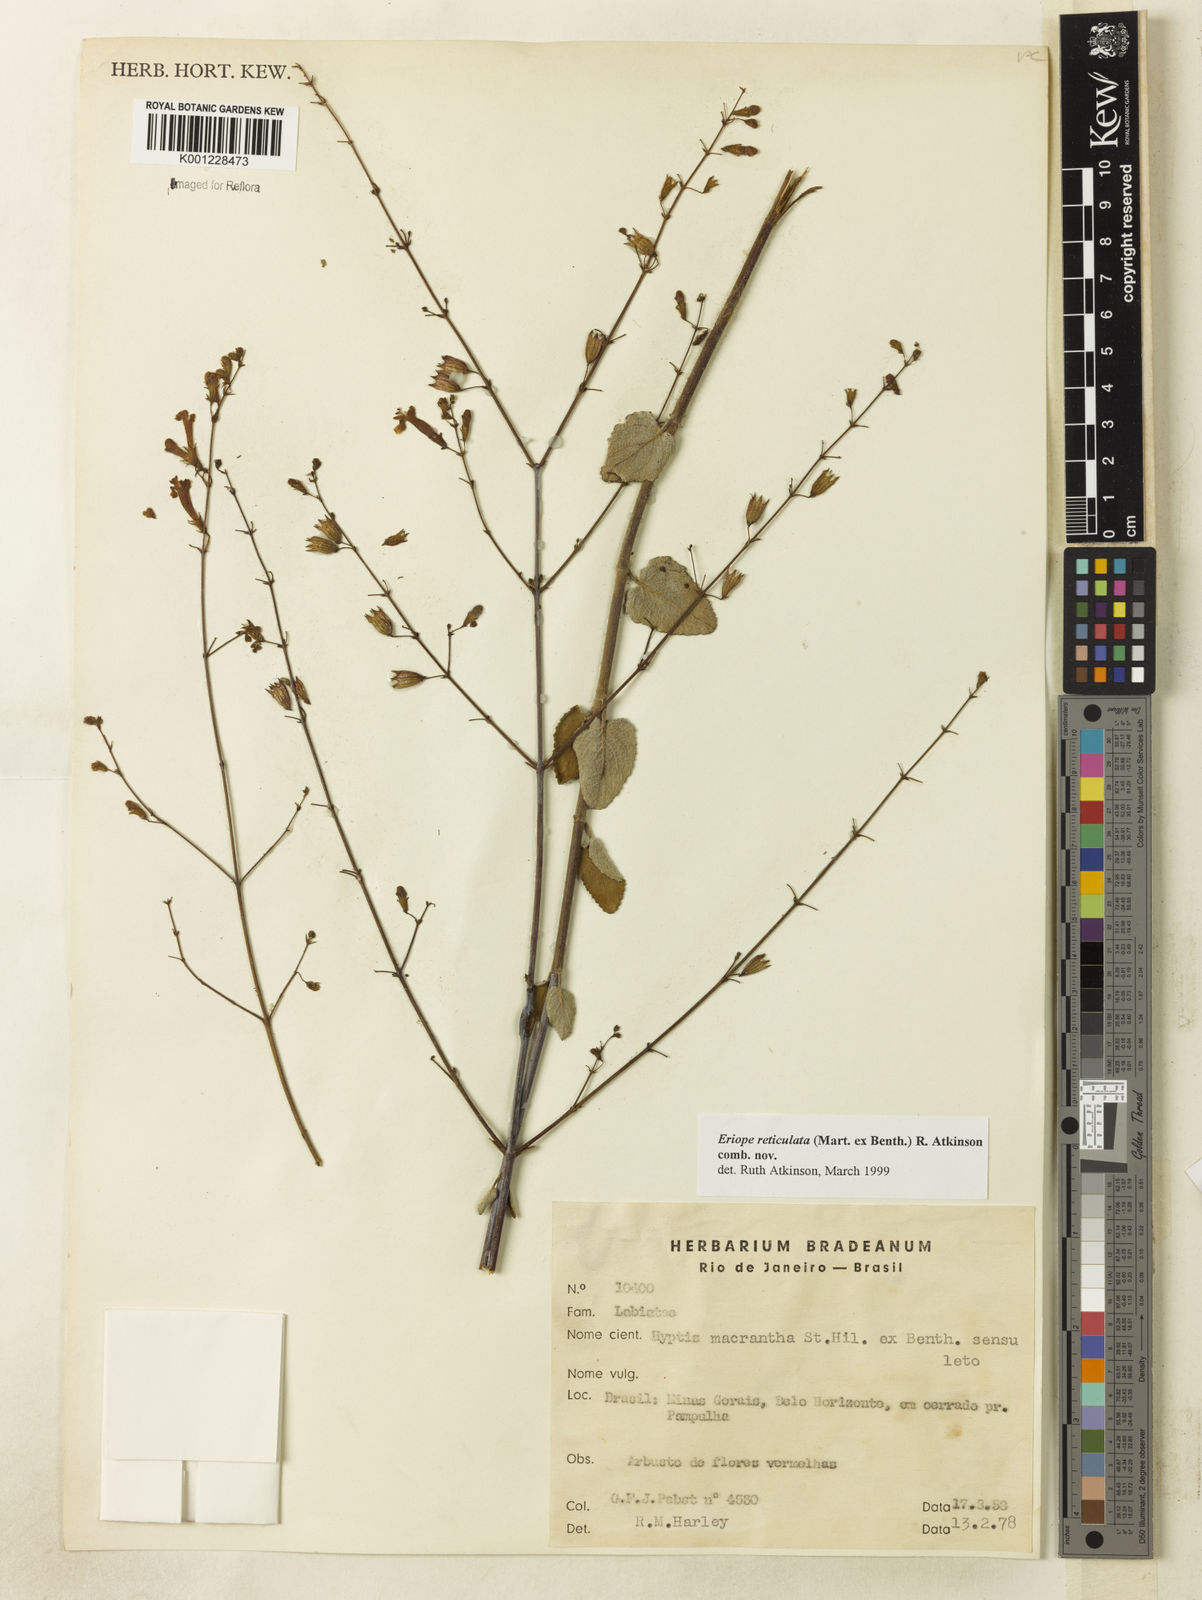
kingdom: Plantae
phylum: Tracheophyta
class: Magnoliopsida
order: Lamiales
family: Lamiaceae
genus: Hypenia
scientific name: Hypenia reticulata
